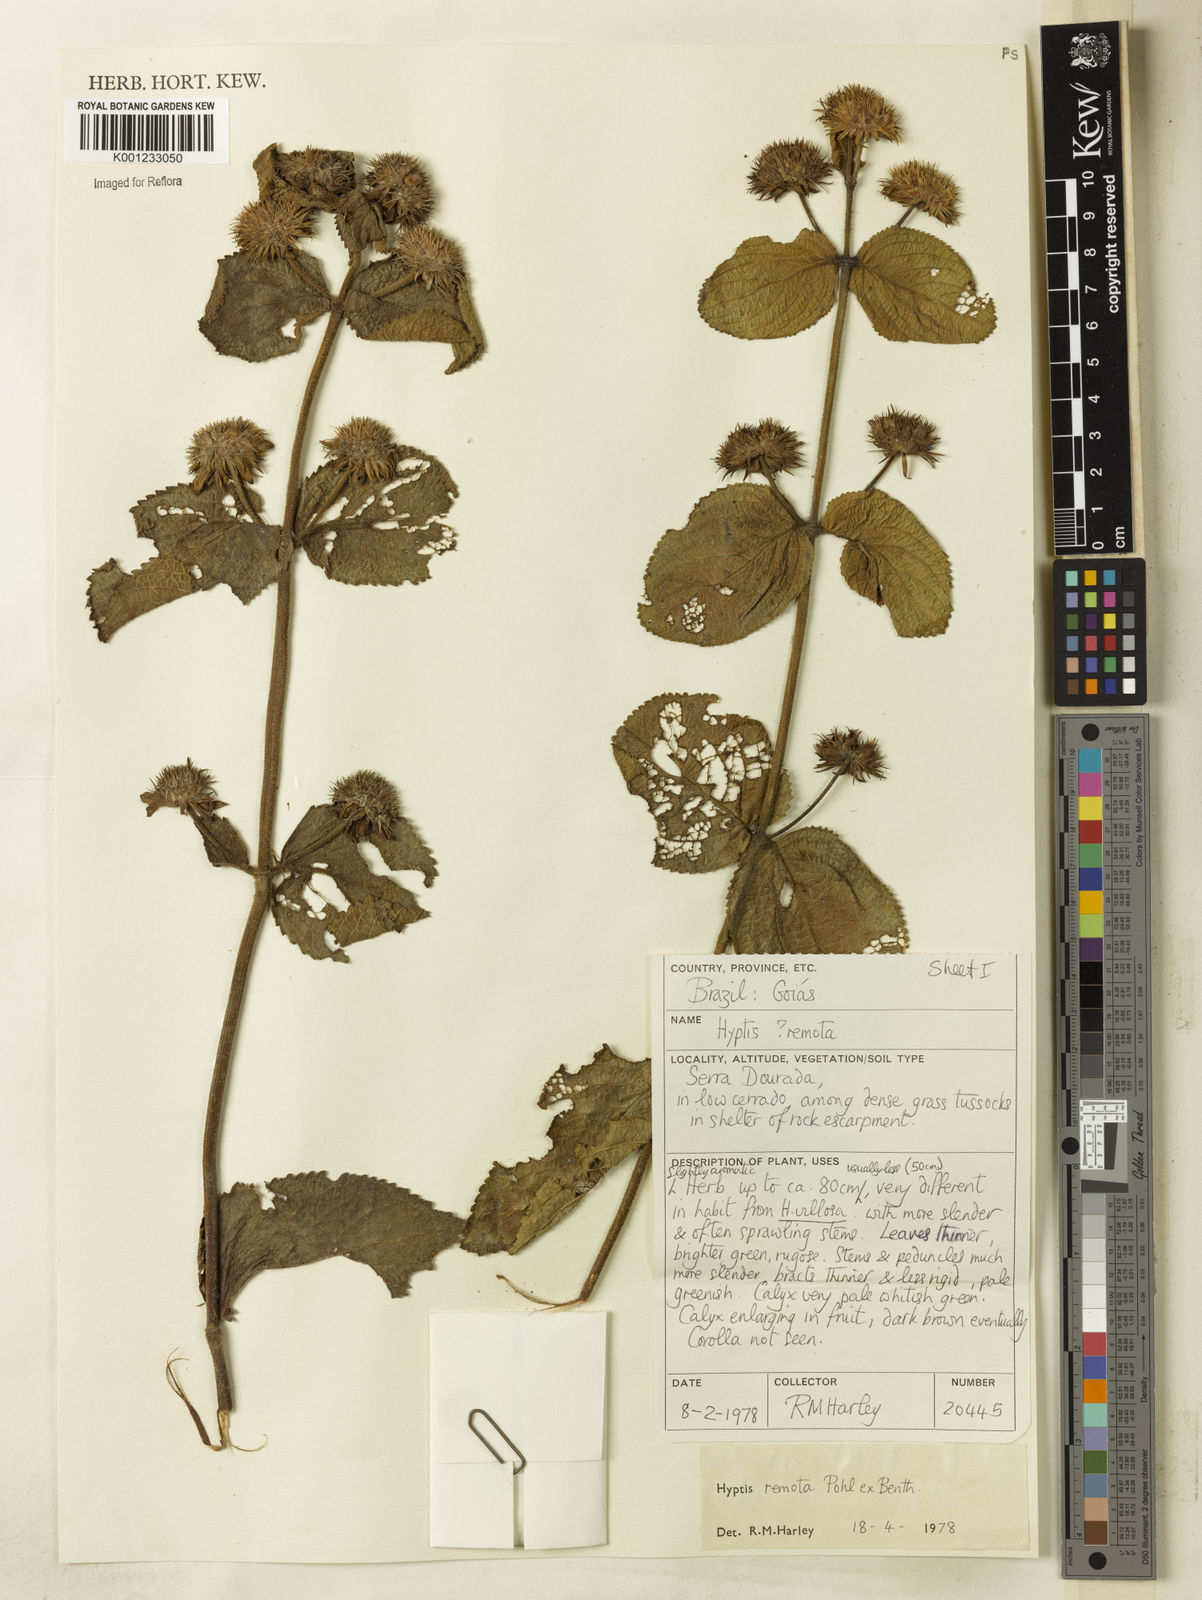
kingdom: Plantae
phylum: Tracheophyta
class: Magnoliopsida
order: Lamiales
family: Lamiaceae
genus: Hyptis
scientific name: Hyptis remota
